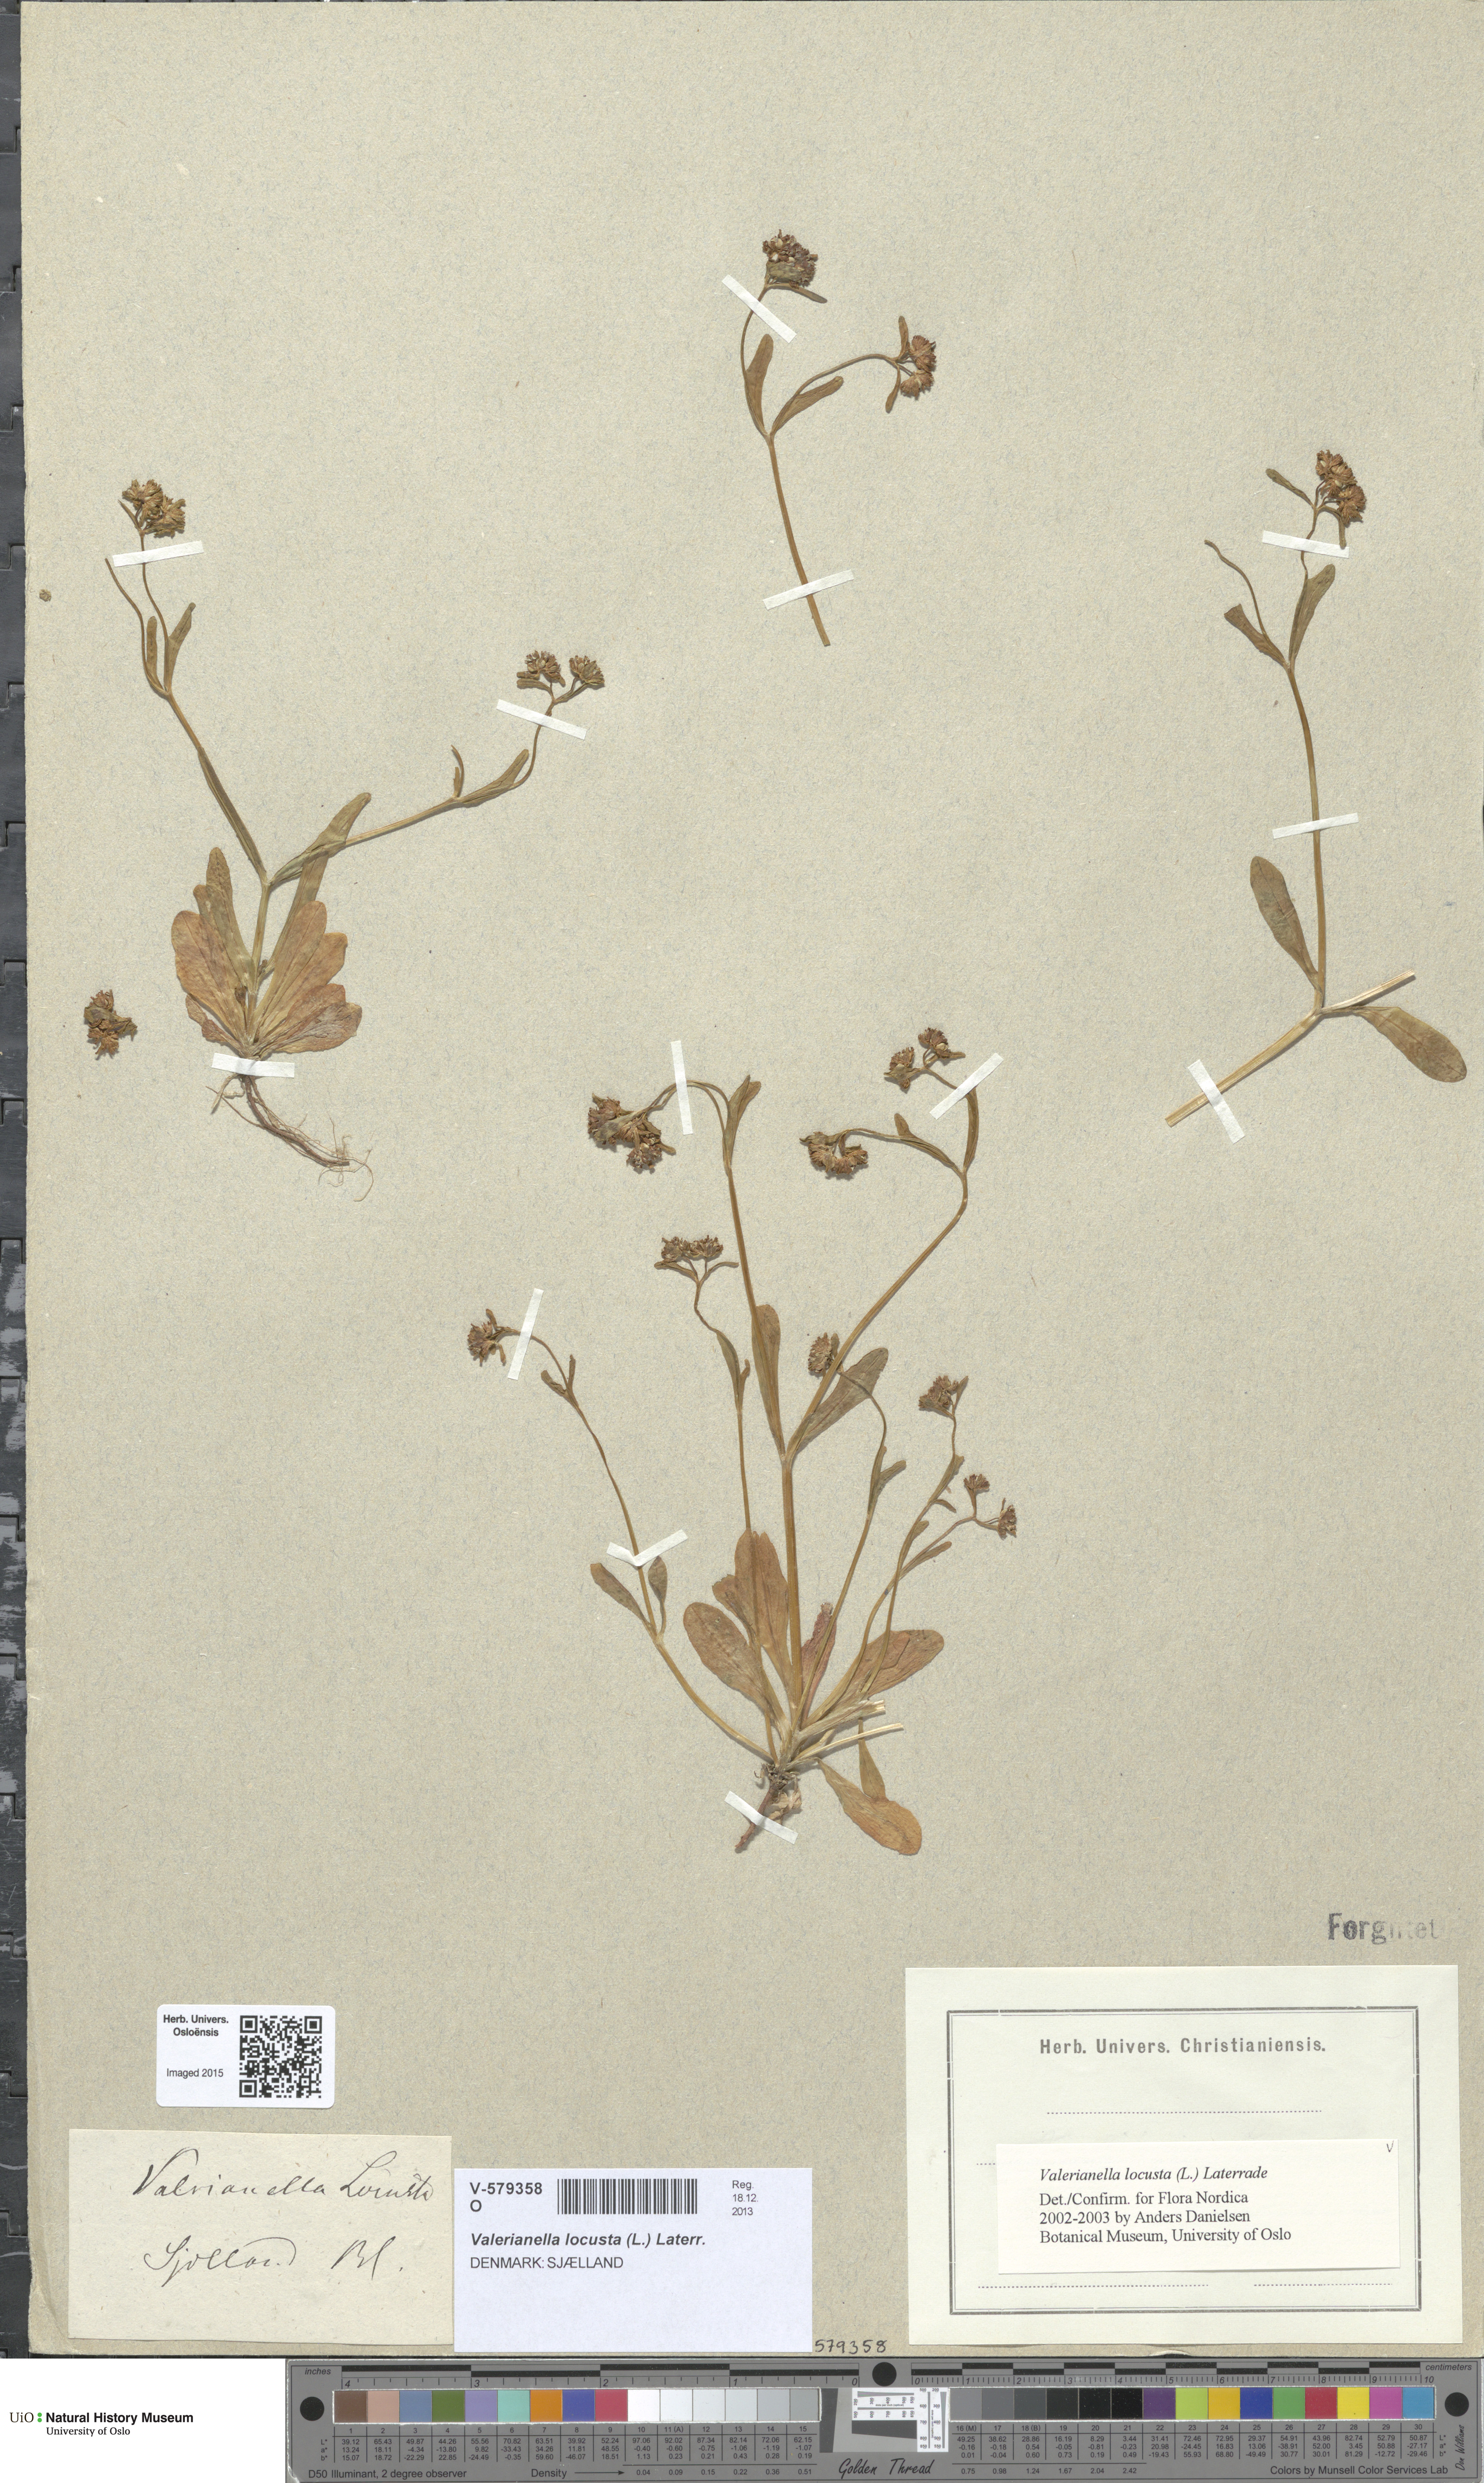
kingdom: Plantae
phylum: Tracheophyta
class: Magnoliopsida
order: Dipsacales
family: Caprifoliaceae
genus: Valerianella
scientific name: Valerianella locusta
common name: Common cornsalad
